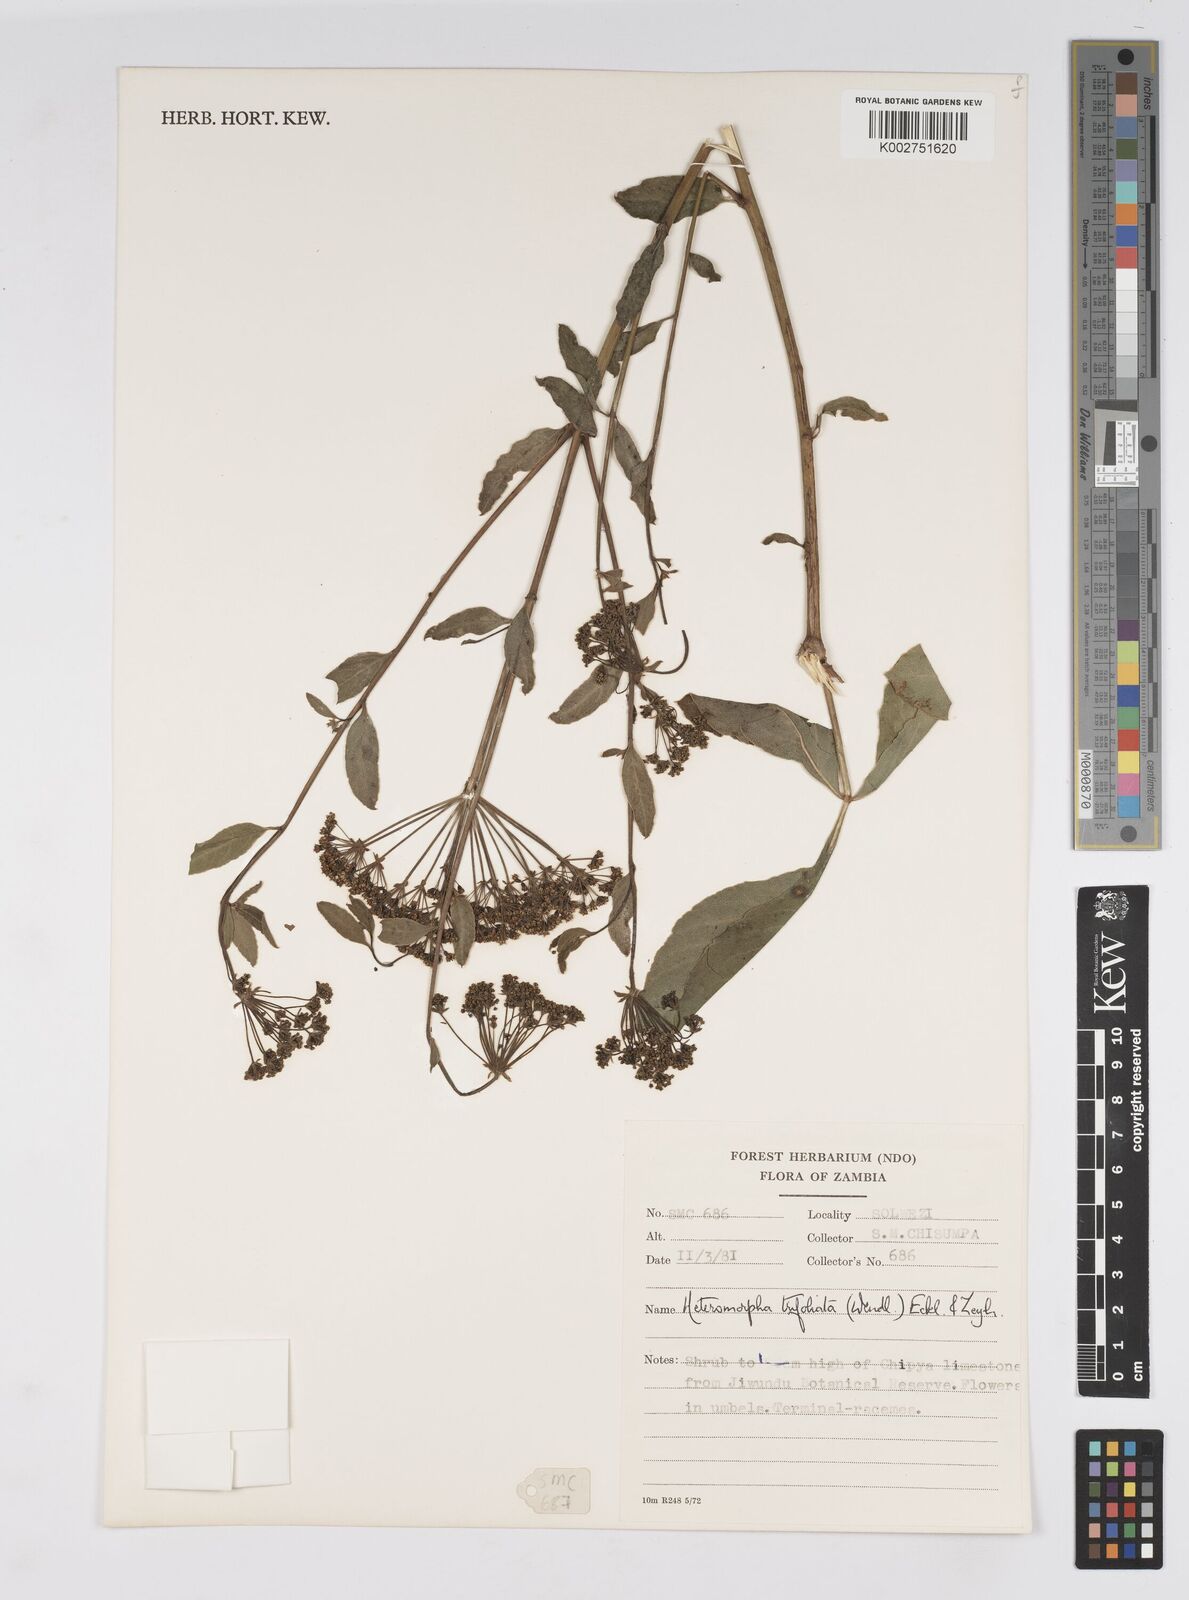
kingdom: Plantae
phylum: Tracheophyta
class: Magnoliopsida
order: Apiales
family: Apiaceae
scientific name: Apiaceae
